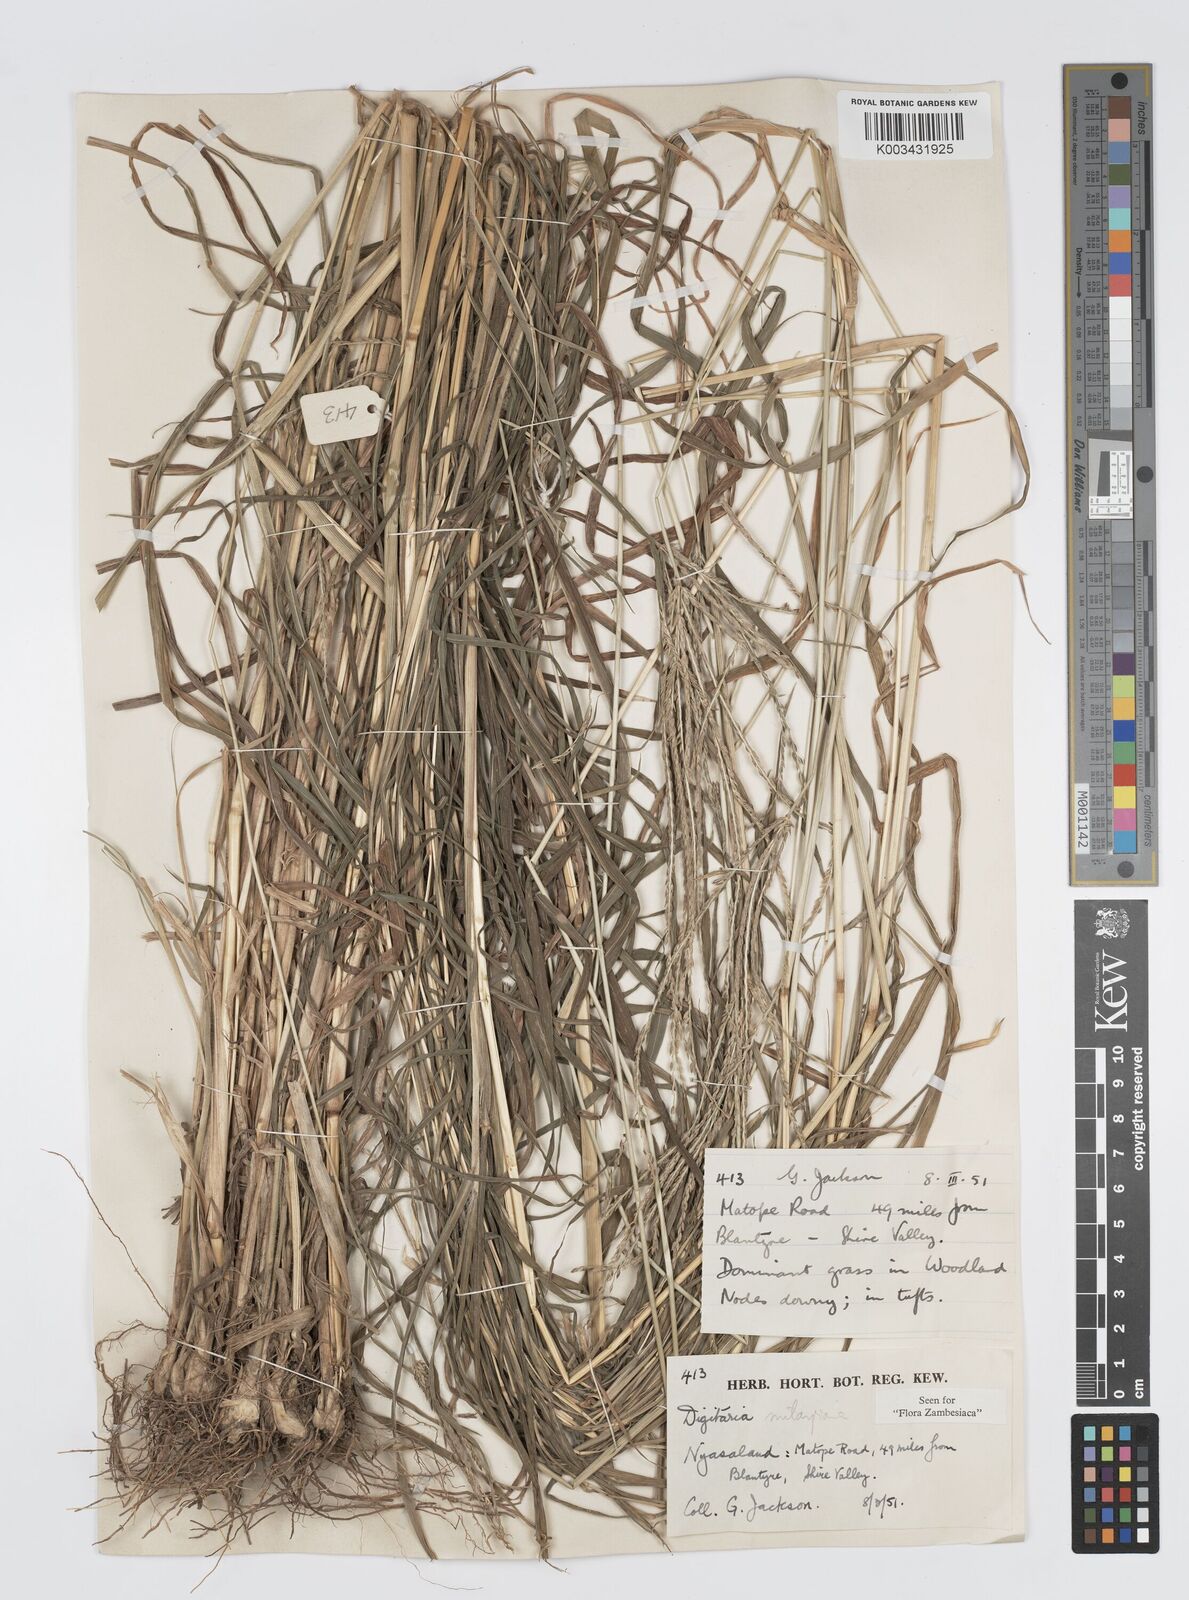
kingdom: Plantae
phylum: Tracheophyta
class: Liliopsida
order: Poales
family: Poaceae
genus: Digitaria
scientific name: Digitaria milanjiana
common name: Madagascar crabgrass
